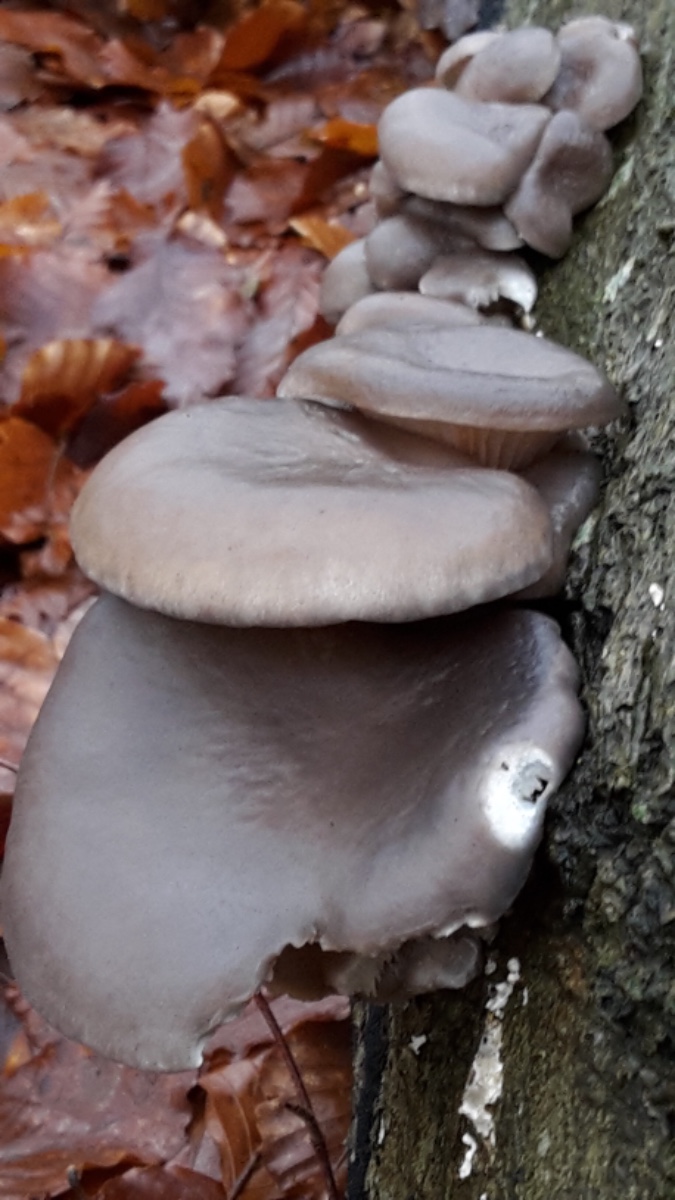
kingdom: Fungi
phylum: Basidiomycota
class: Agaricomycetes
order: Agaricales
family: Pleurotaceae
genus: Pleurotus
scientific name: Pleurotus ostreatus
